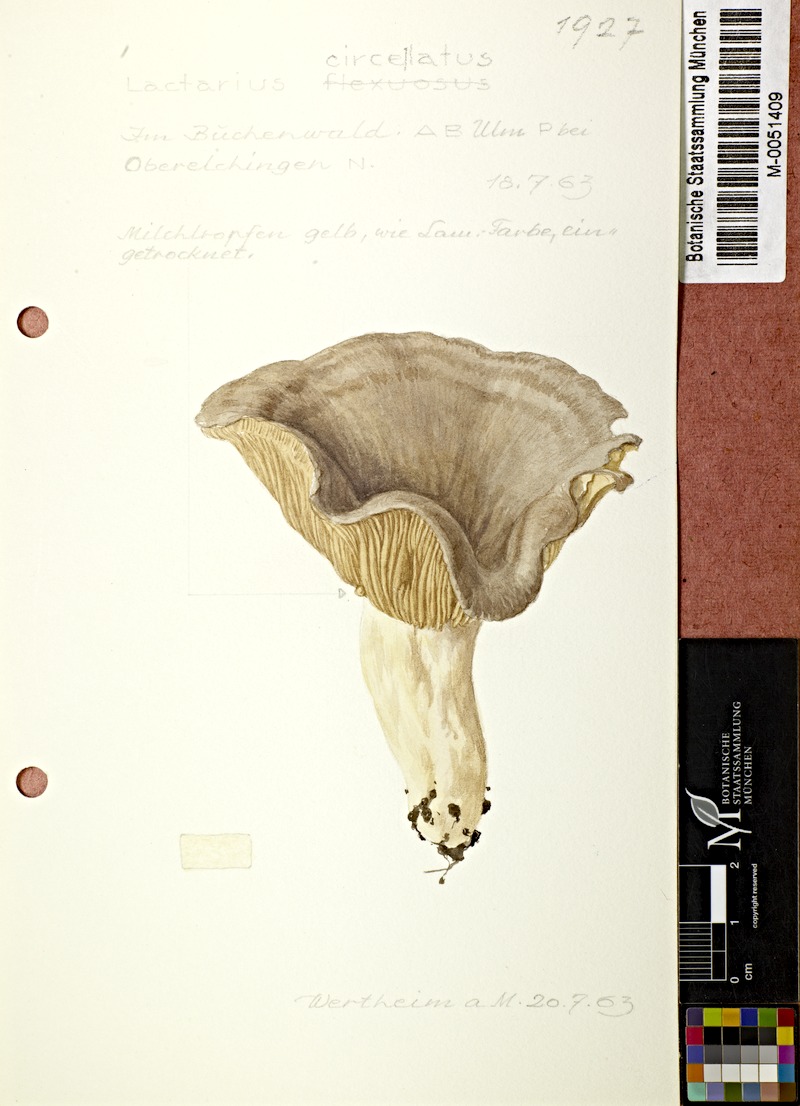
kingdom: Fungi
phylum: Basidiomycota
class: Agaricomycetes
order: Russulales
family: Russulaceae
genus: Lactarius
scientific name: Lactarius circellatus
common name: Circled milkcap
